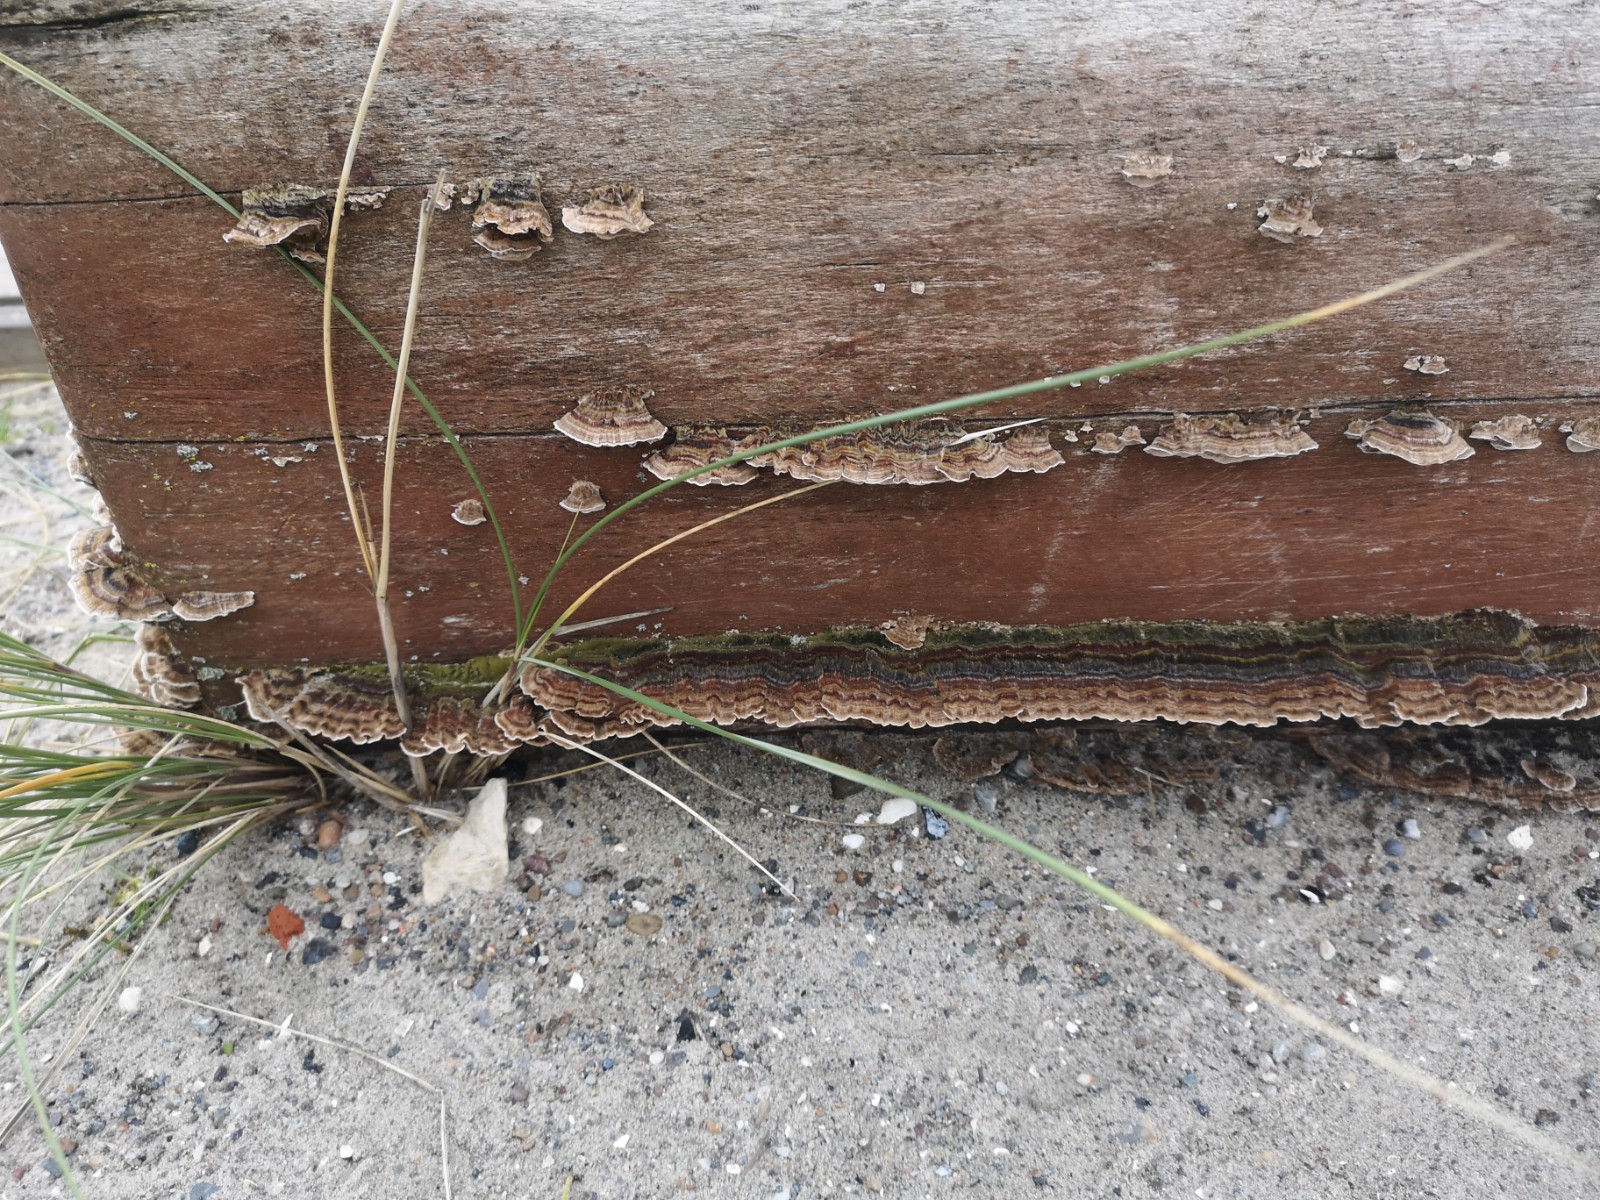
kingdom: Fungi
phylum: Basidiomycota
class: Agaricomycetes
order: Polyporales
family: Polyporaceae
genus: Trametes
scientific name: Trametes versicolor
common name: broget læderporesvamp
